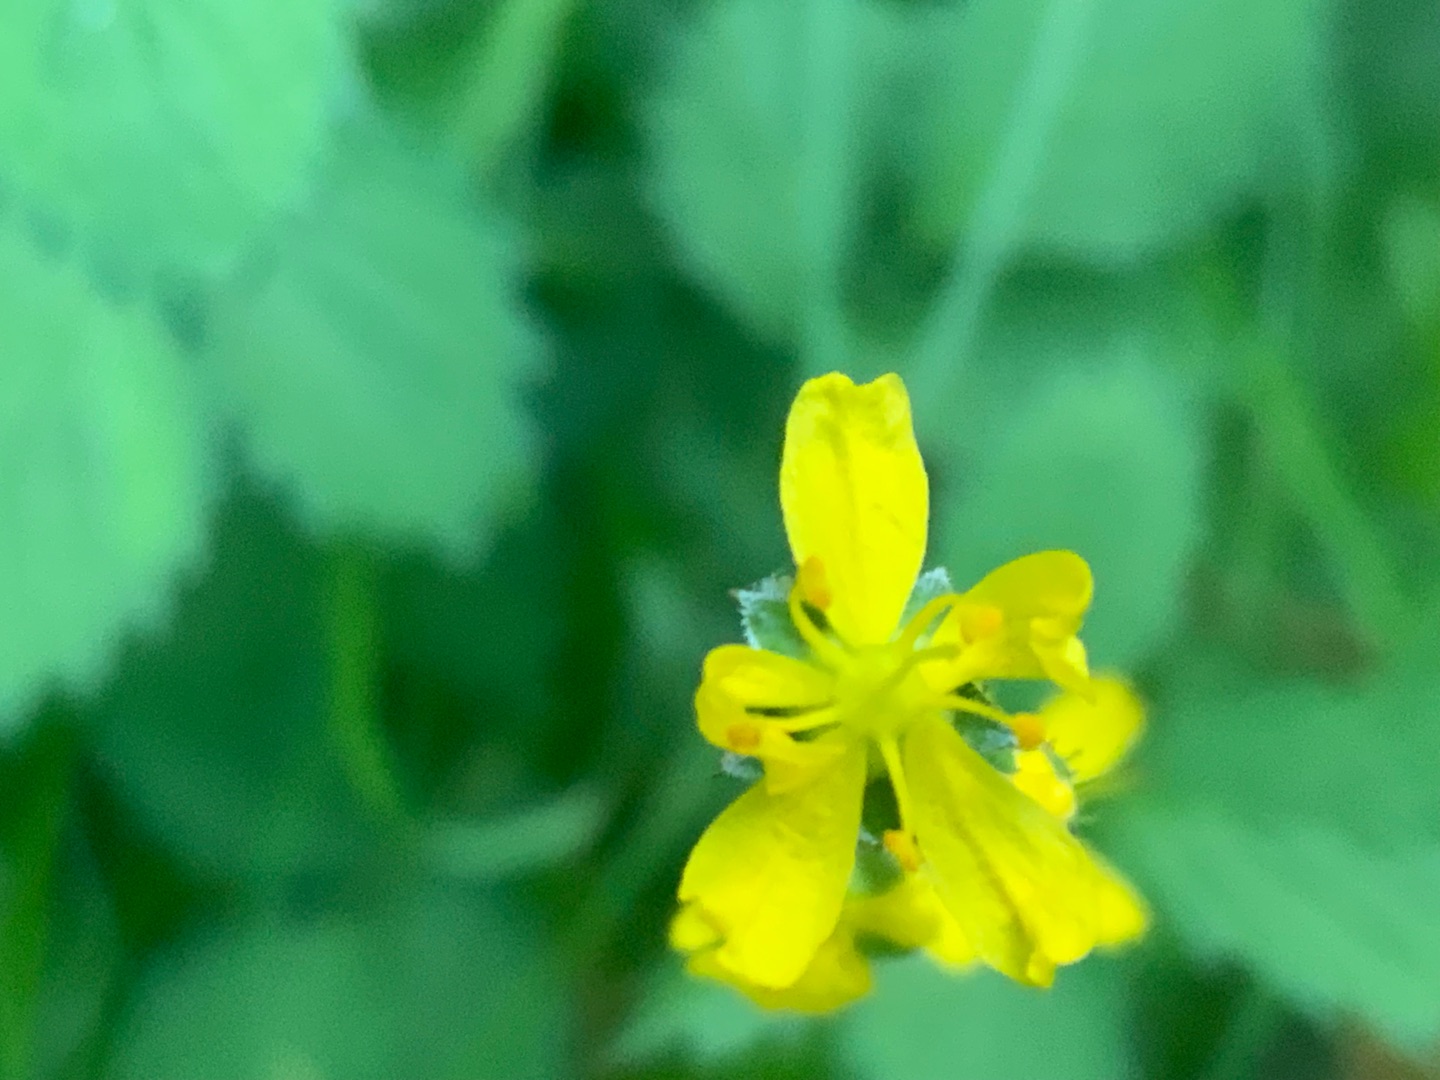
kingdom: Plantae
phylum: Tracheophyta
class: Magnoliopsida
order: Rosales
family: Rosaceae
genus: Agrimonia
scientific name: Agrimonia eupatoria
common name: Almindelig agermåne
